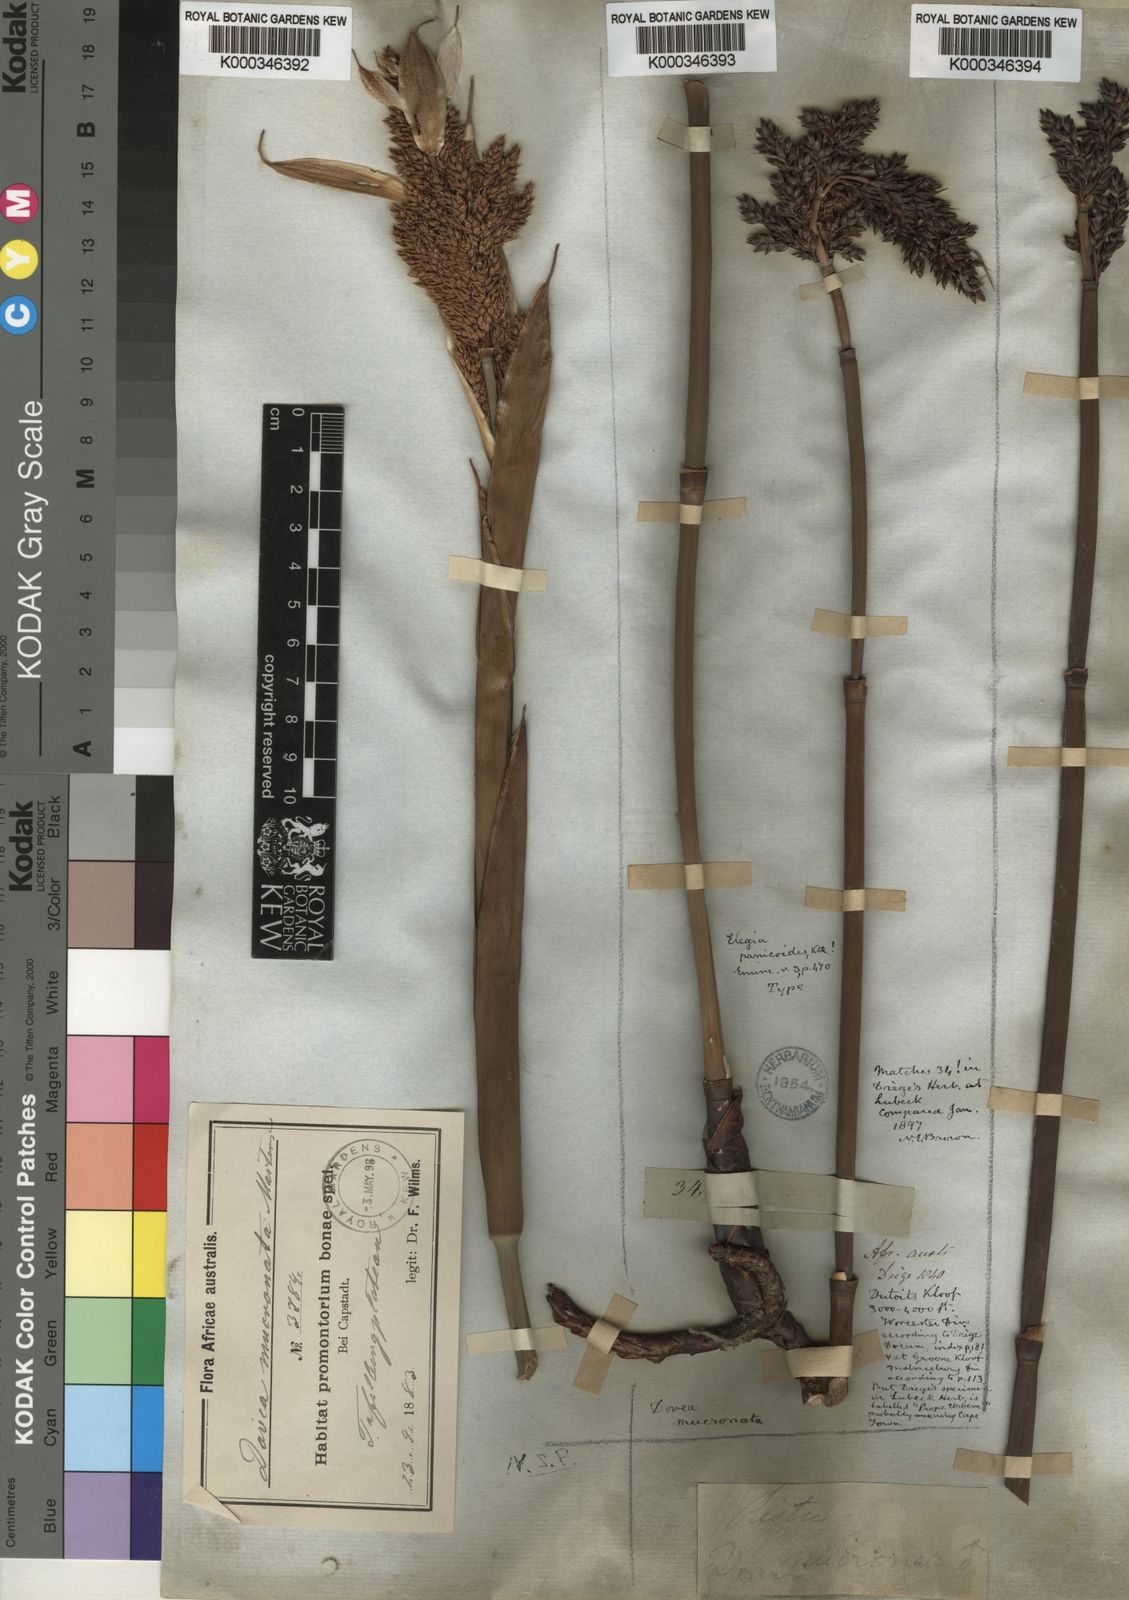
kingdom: Plantae
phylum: Tracheophyta
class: Liliopsida
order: Poales
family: Restionaceae
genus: Elegia
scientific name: Elegia mucronata
